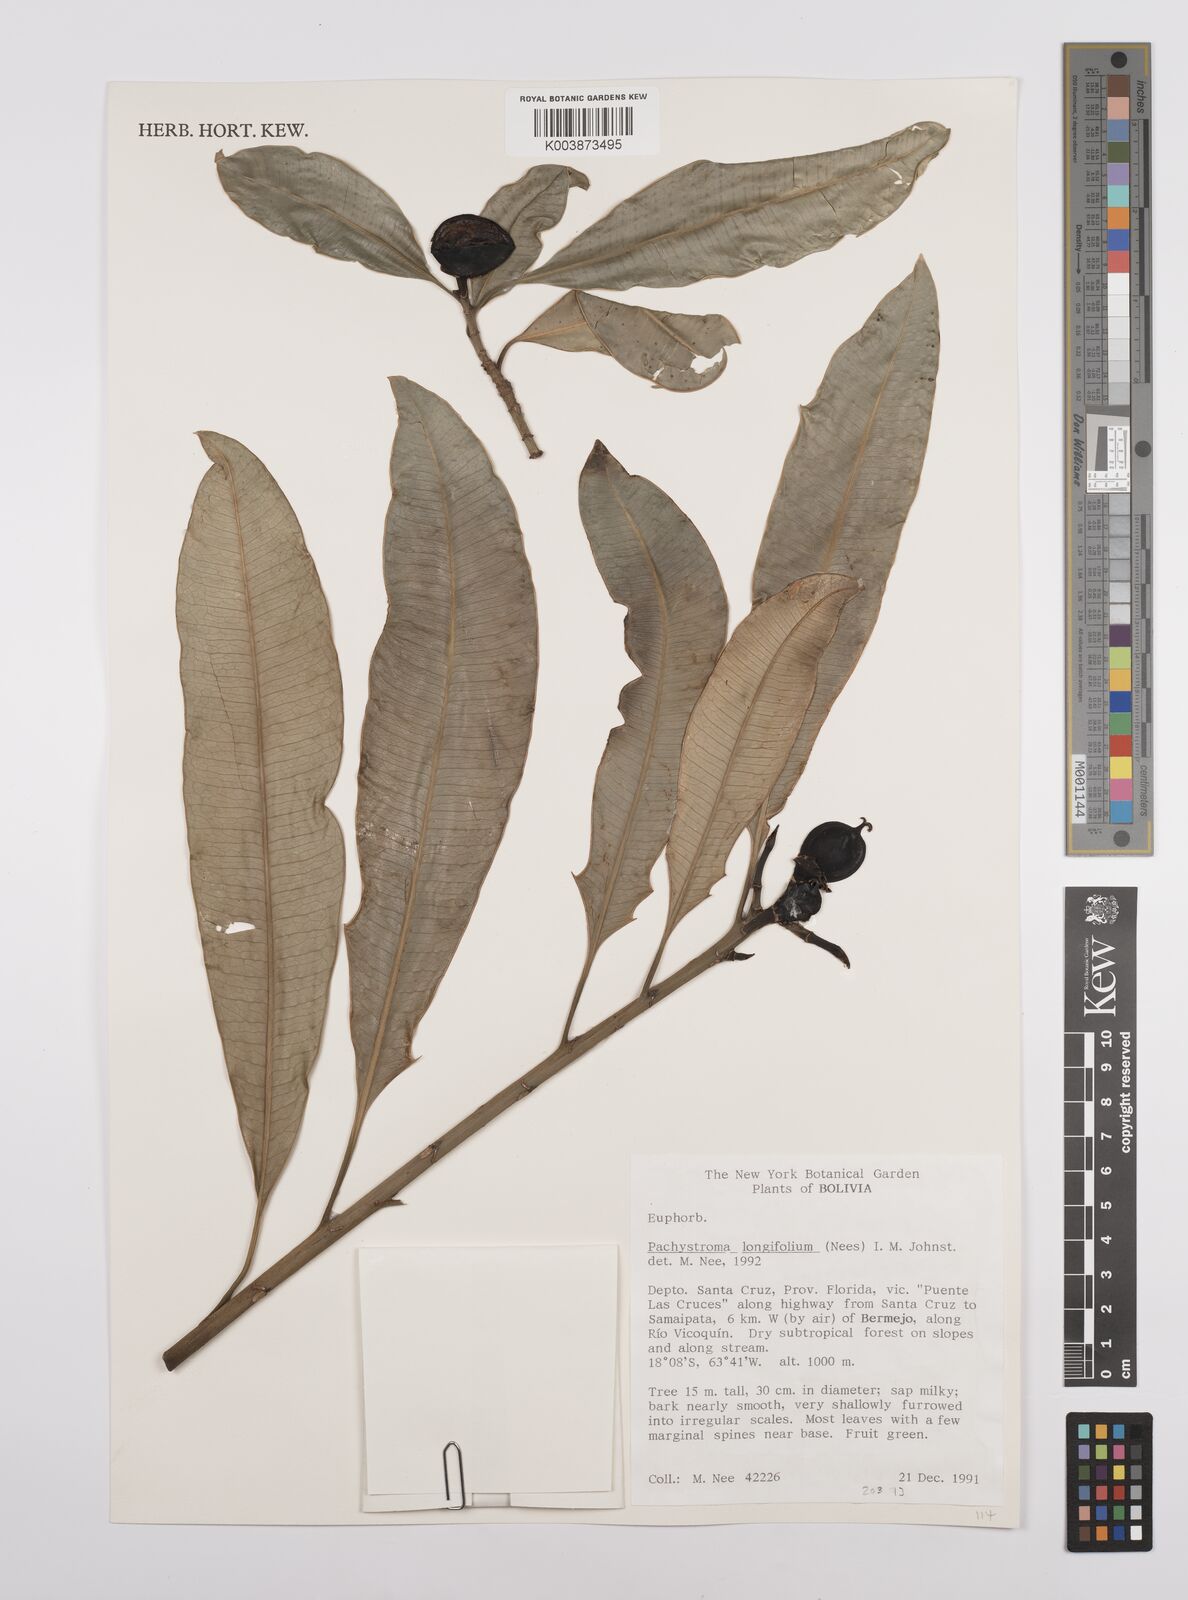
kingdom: Plantae
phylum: Tracheophyta
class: Magnoliopsida
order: Malpighiales
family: Euphorbiaceae
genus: Pachystroma
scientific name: Pachystroma longifolium
